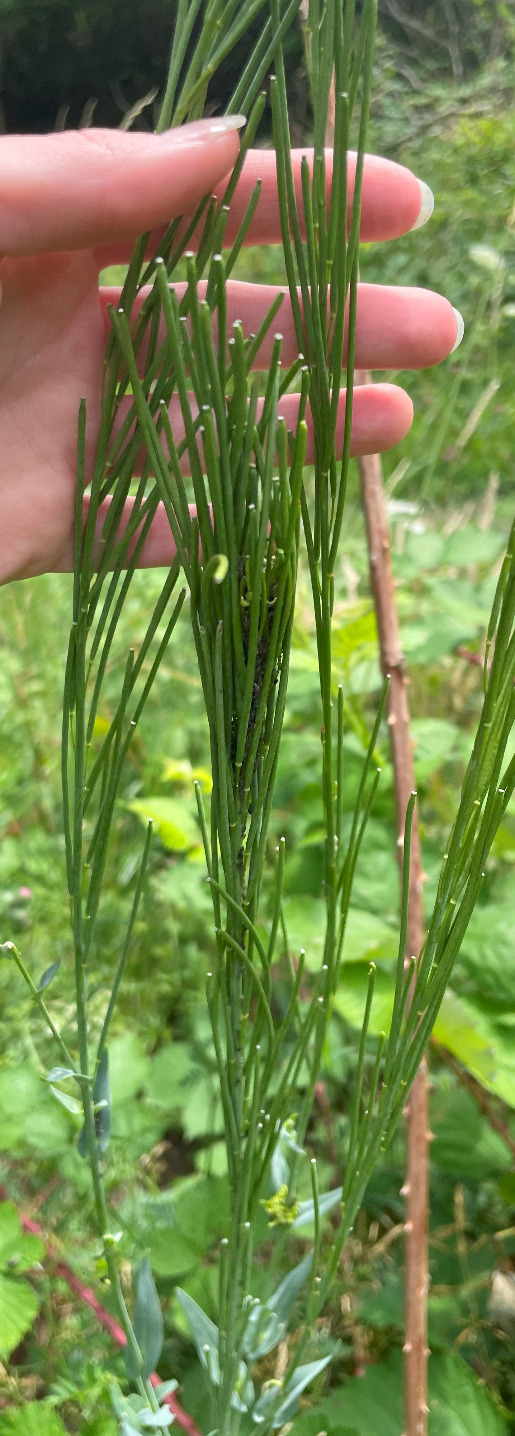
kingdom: Plantae
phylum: Tracheophyta
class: Magnoliopsida
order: Brassicales
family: Brassicaceae
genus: Turritis
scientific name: Turritis glabra
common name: Tårnurt
